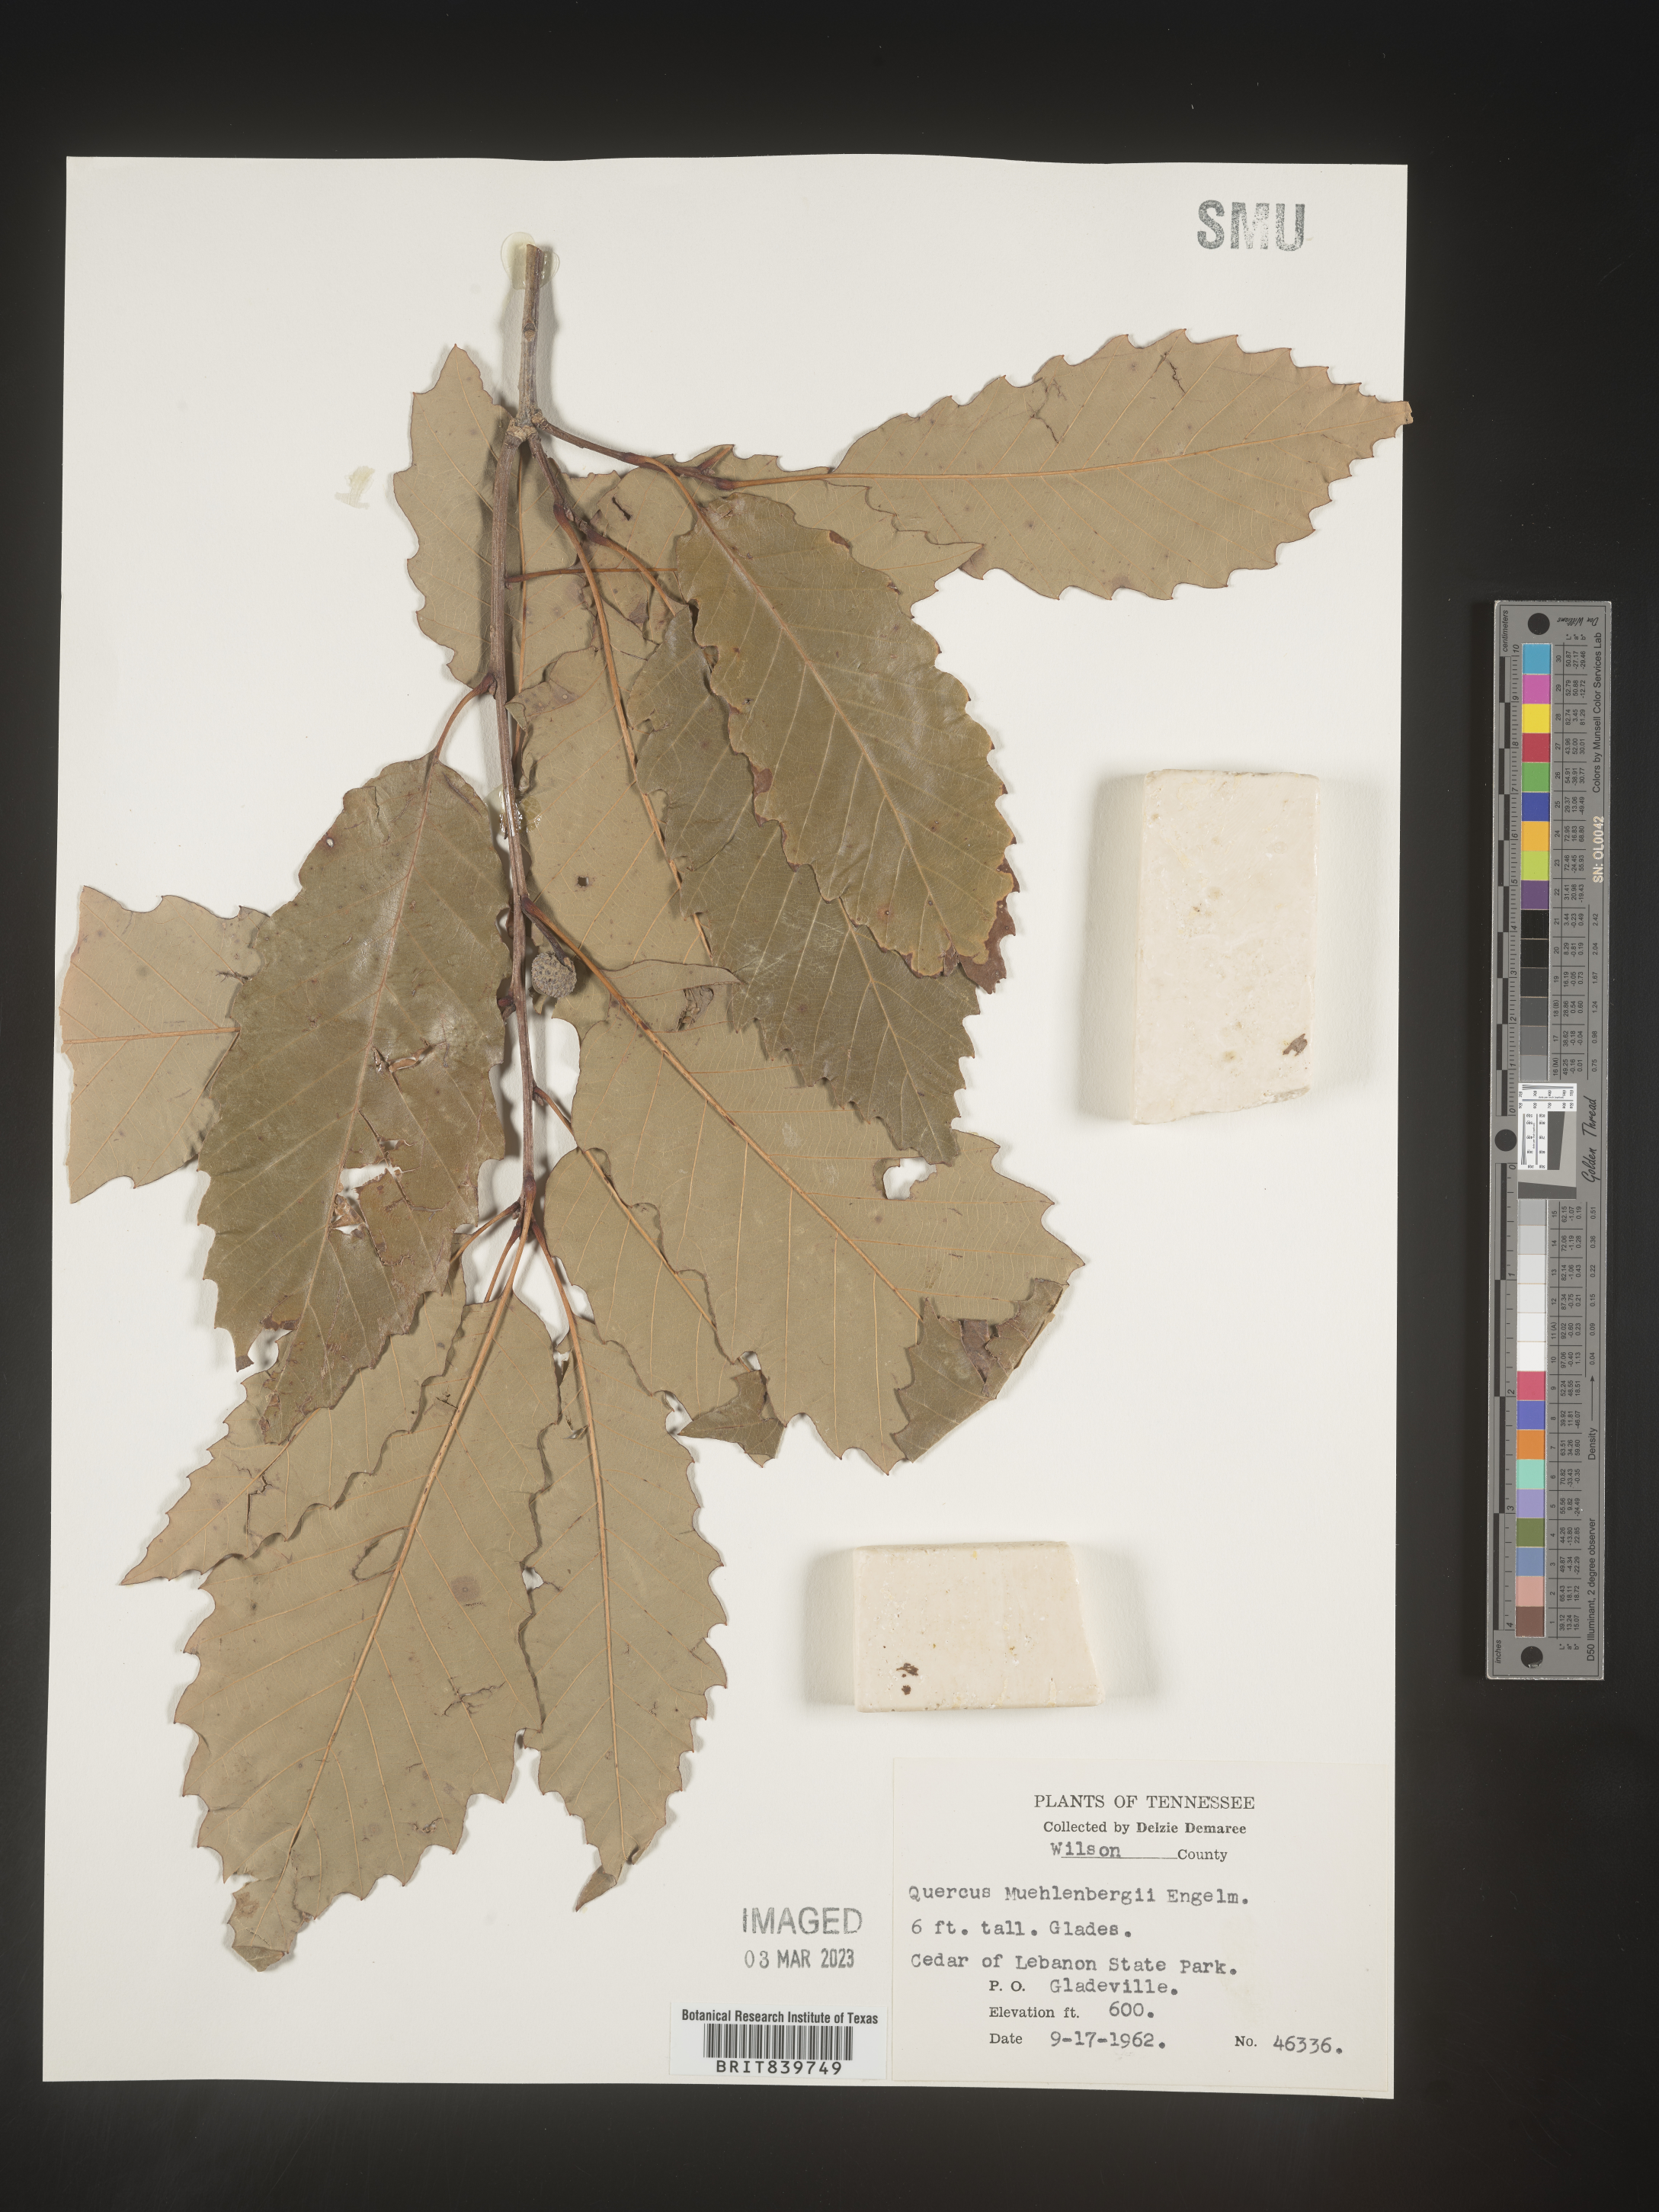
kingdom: Plantae
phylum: Tracheophyta
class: Magnoliopsida
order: Fagales
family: Fagaceae
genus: Quercus
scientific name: Quercus muehlenbergii
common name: Chinkapin oak
